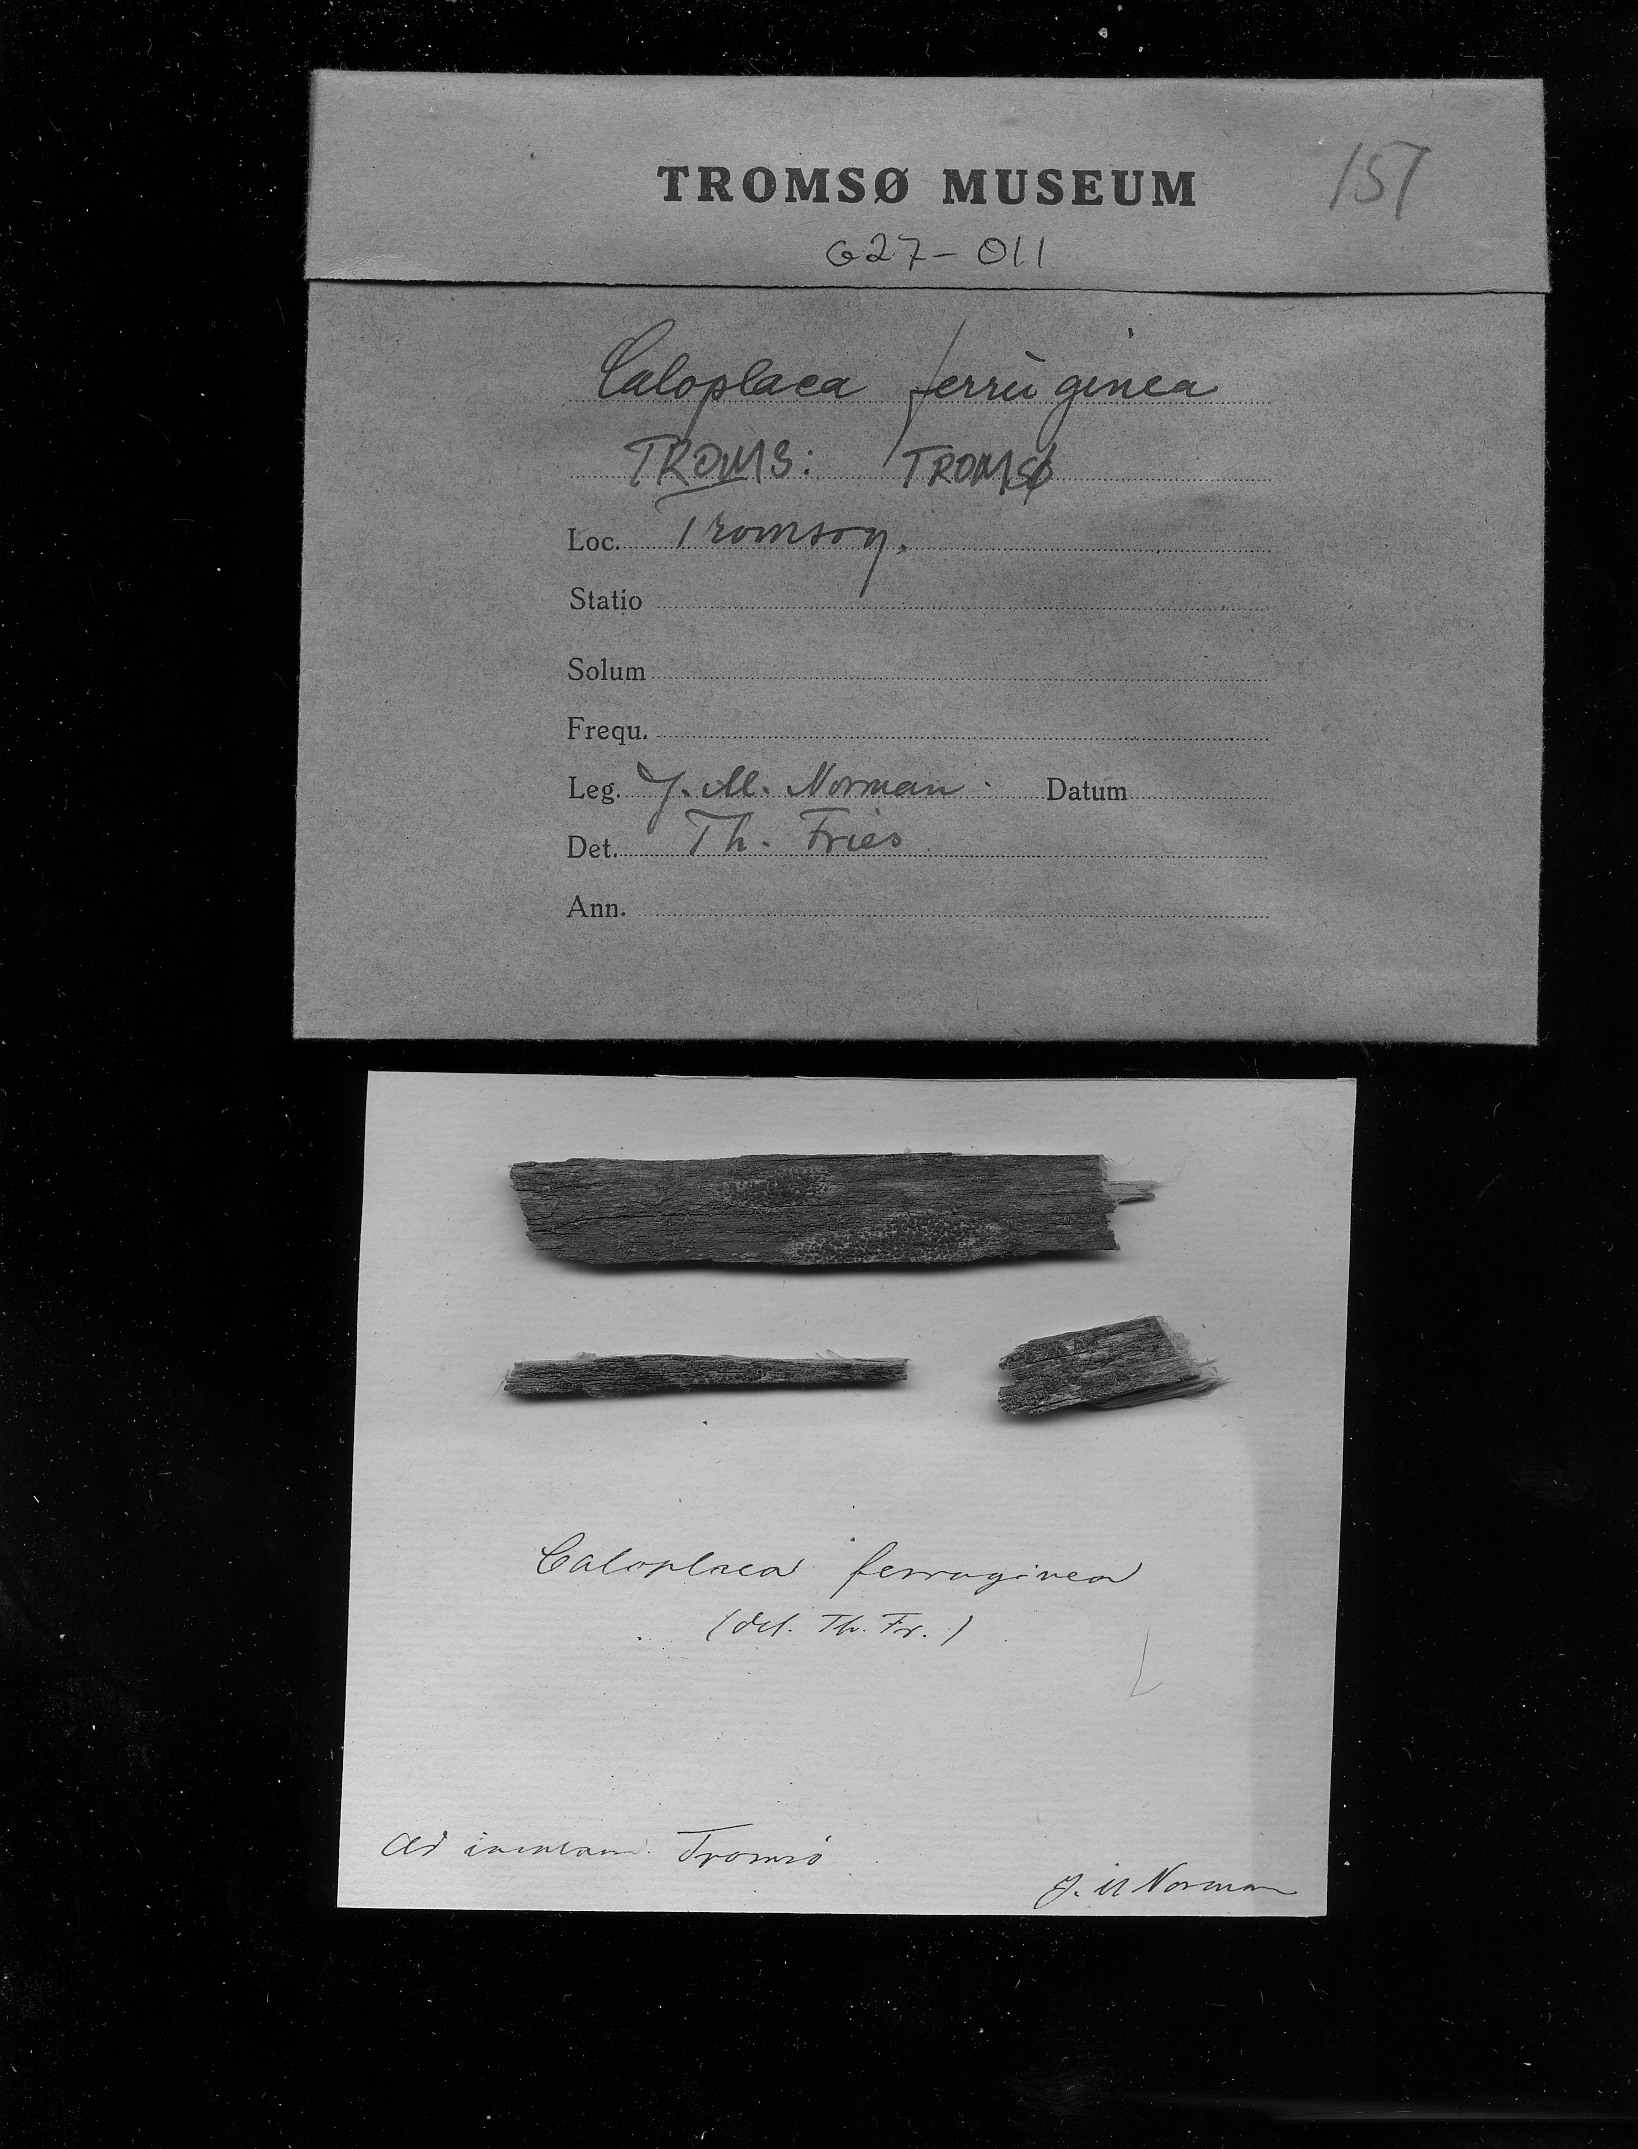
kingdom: Fungi
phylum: Ascomycota
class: Lecanoromycetes
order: Teloschistales
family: Teloschistaceae
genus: Blastenia
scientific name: Blastenia ammiospila
